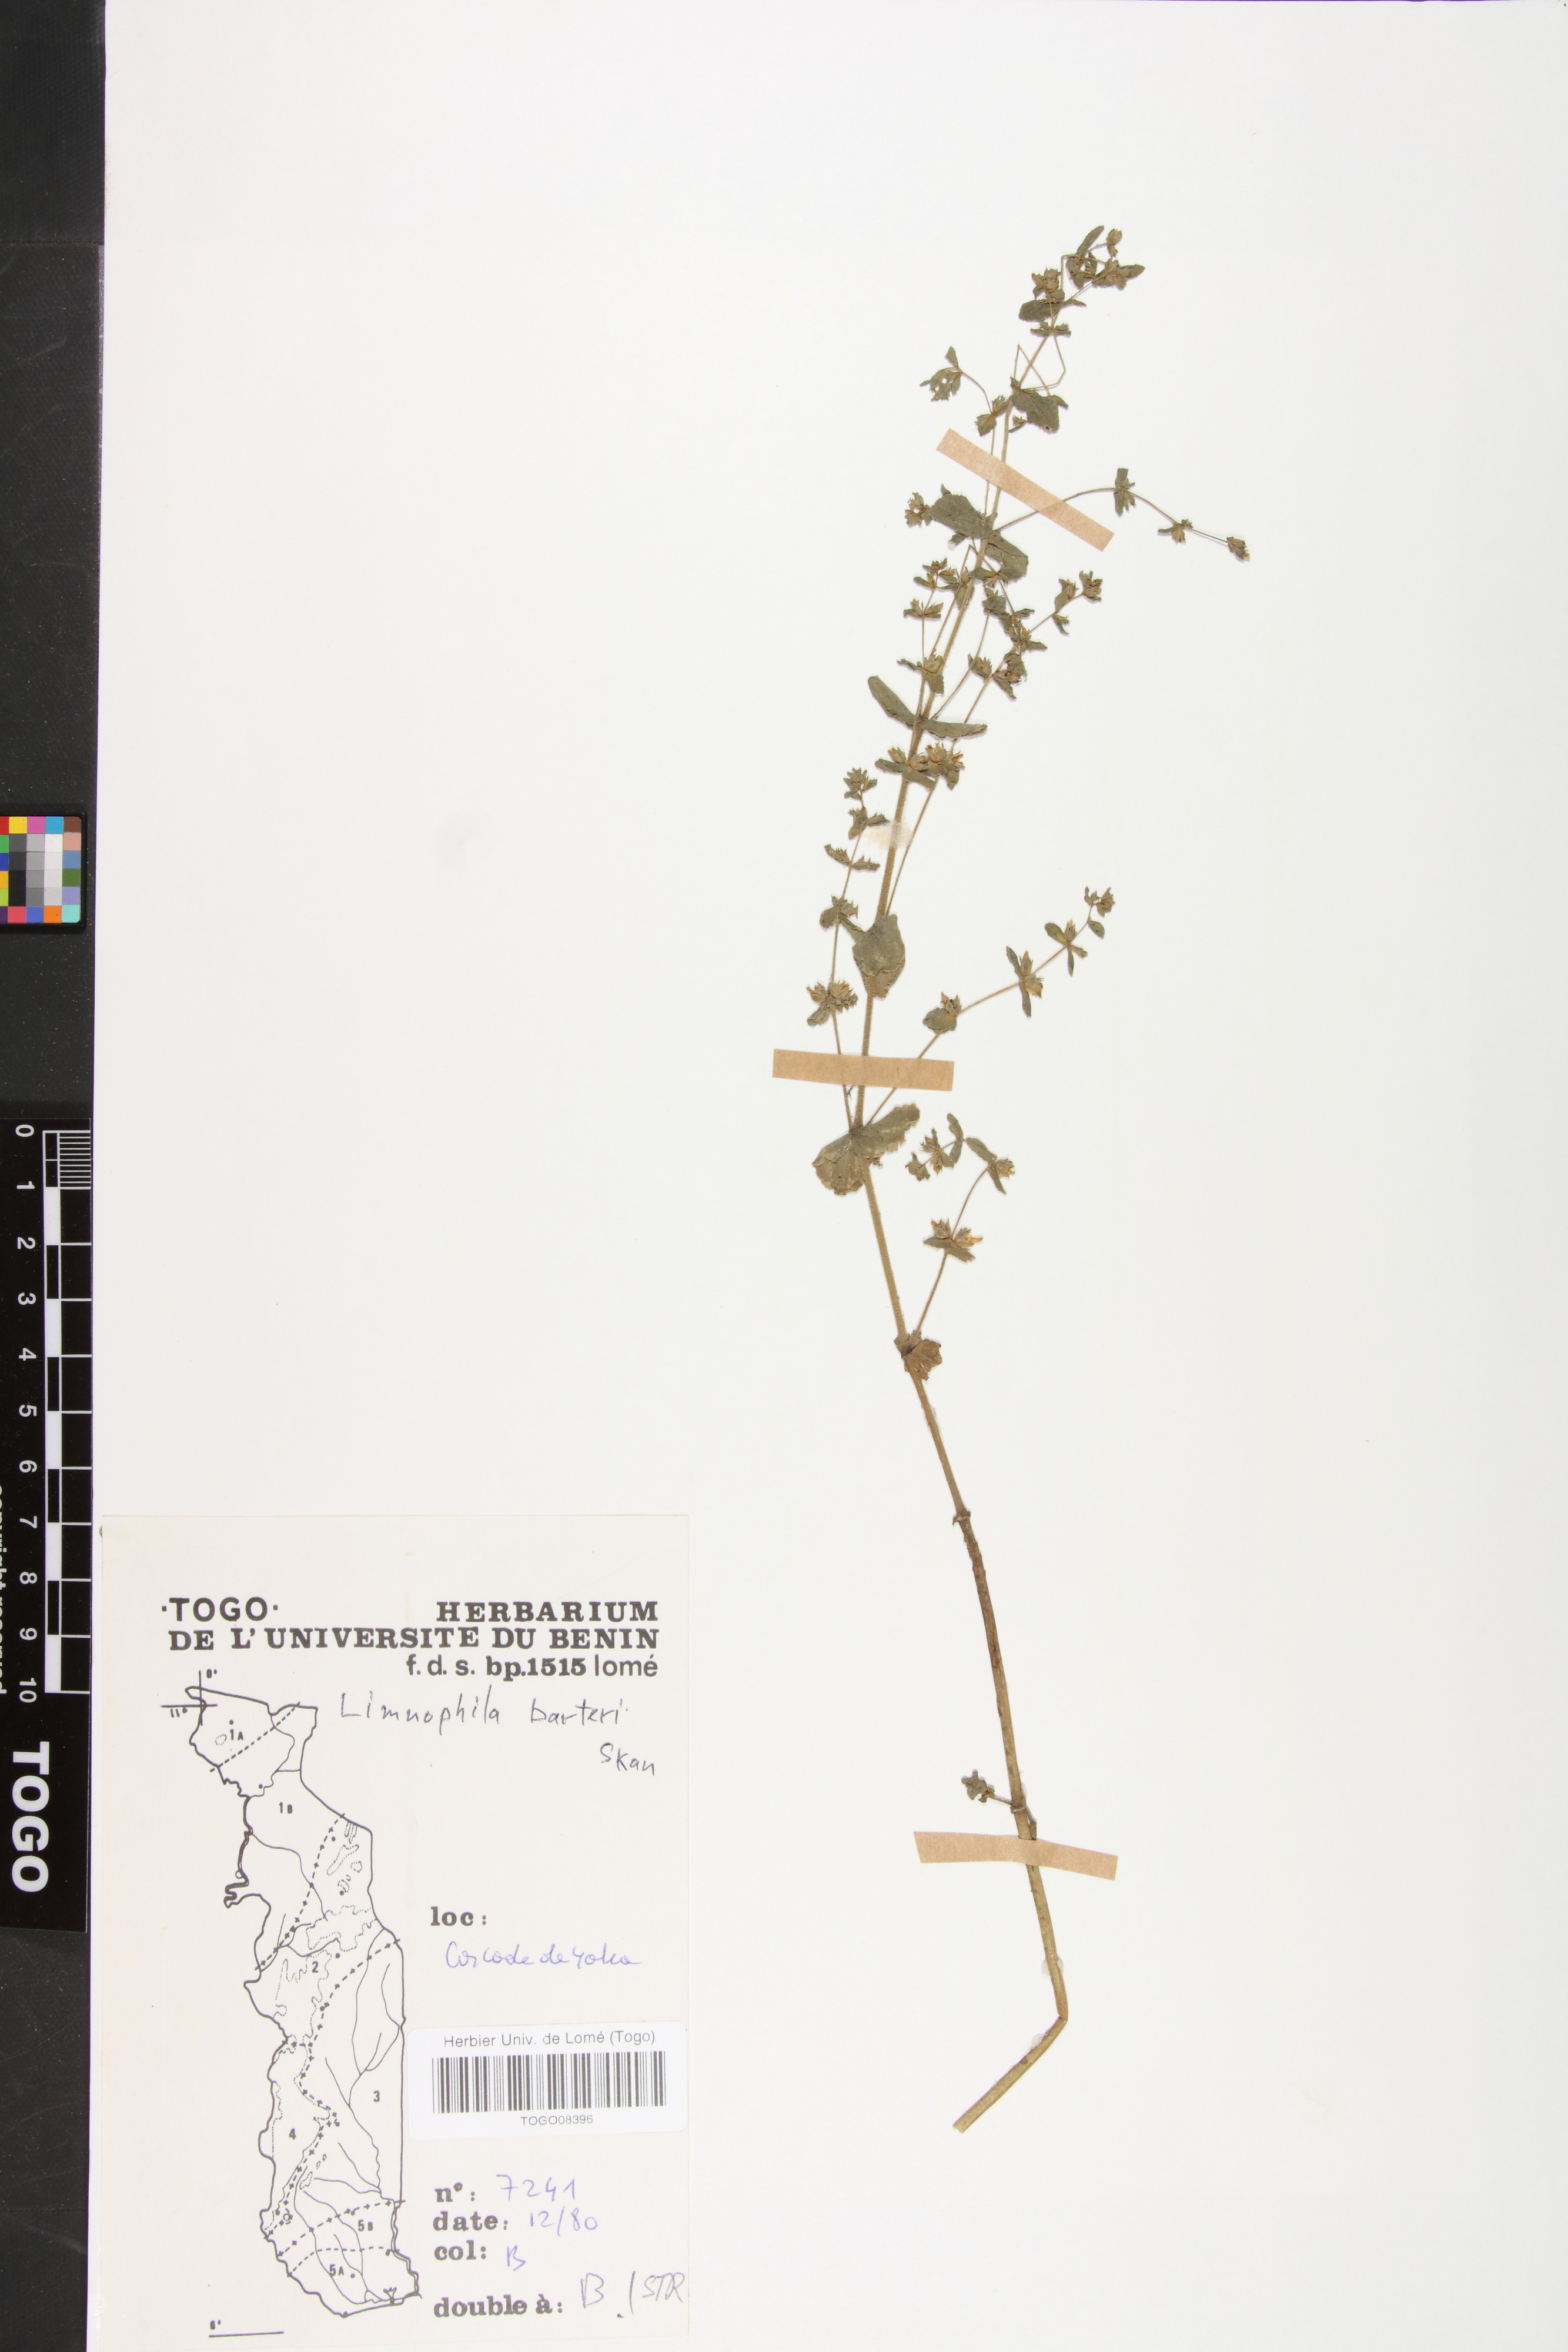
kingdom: Plantae
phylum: Tracheophyta
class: Magnoliopsida
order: Lamiales
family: Plantaginaceae
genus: Limnophila
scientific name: Limnophila barteri
